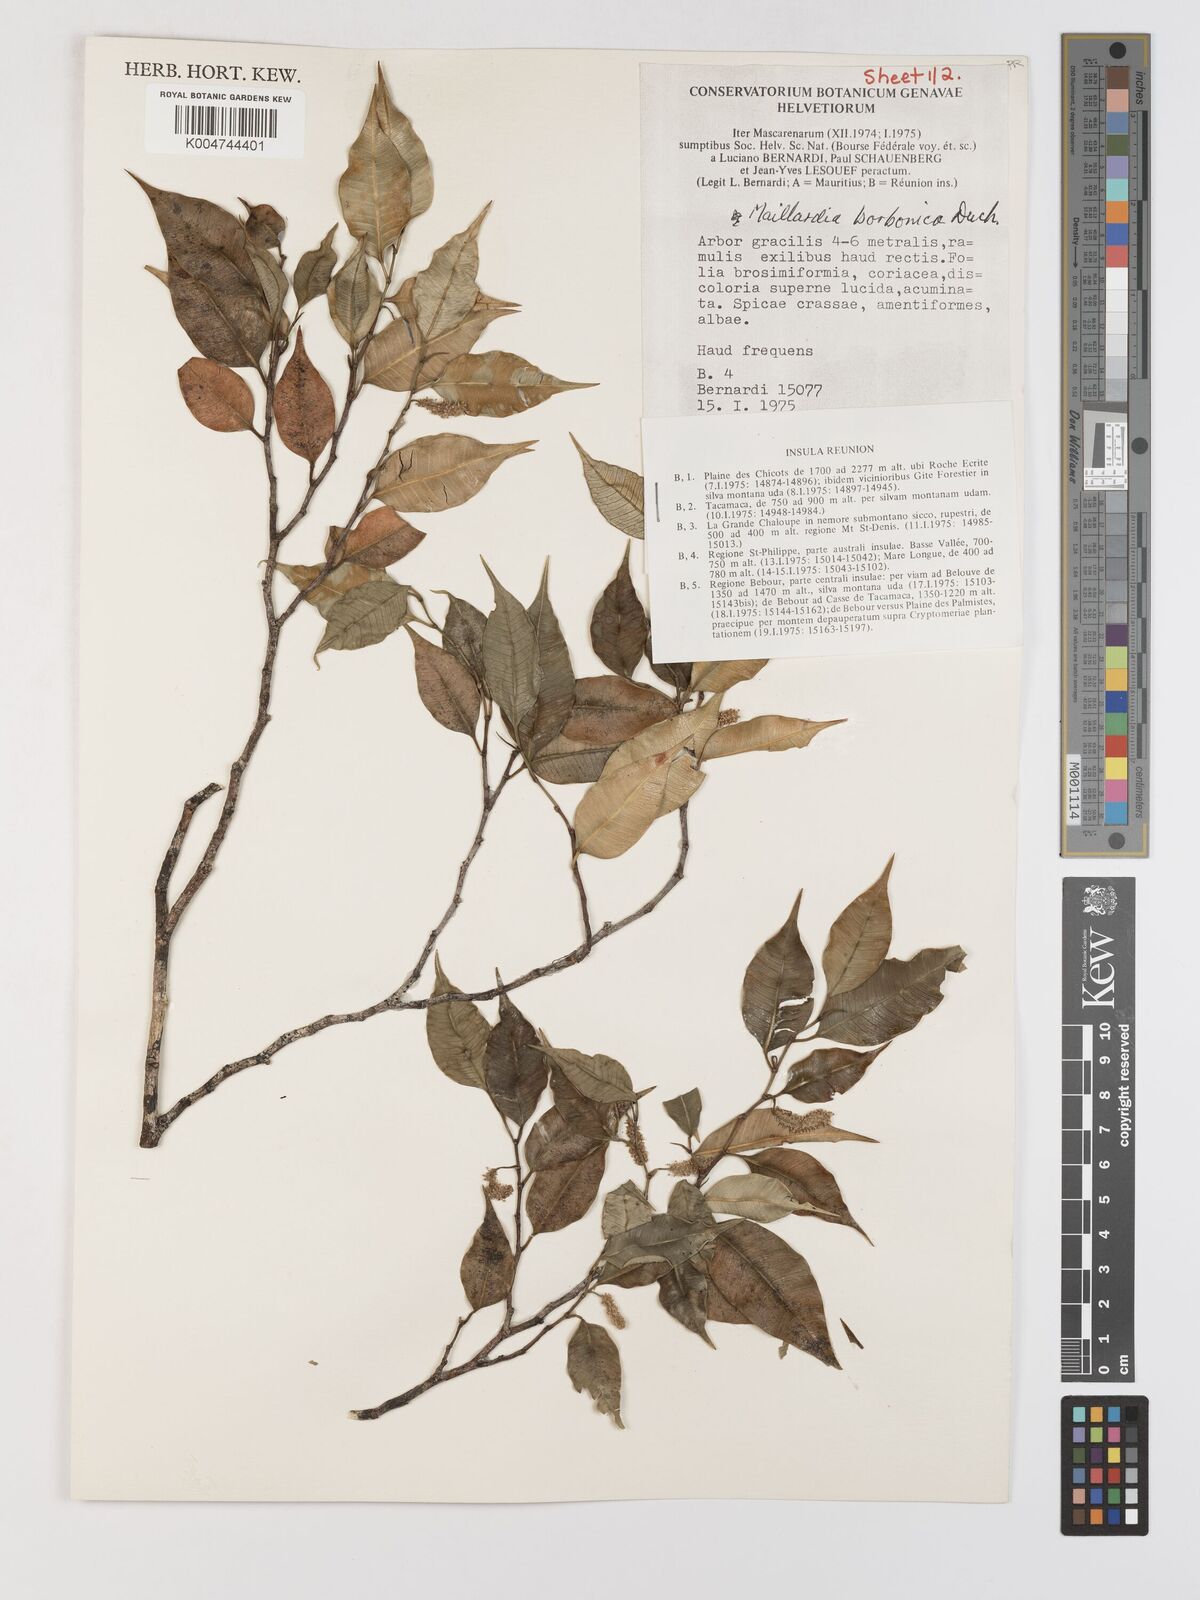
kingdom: Plantae
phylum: Tracheophyta
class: Magnoliopsida
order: Rosales
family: Moraceae
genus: Maillardia
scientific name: Maillardia borbonica
